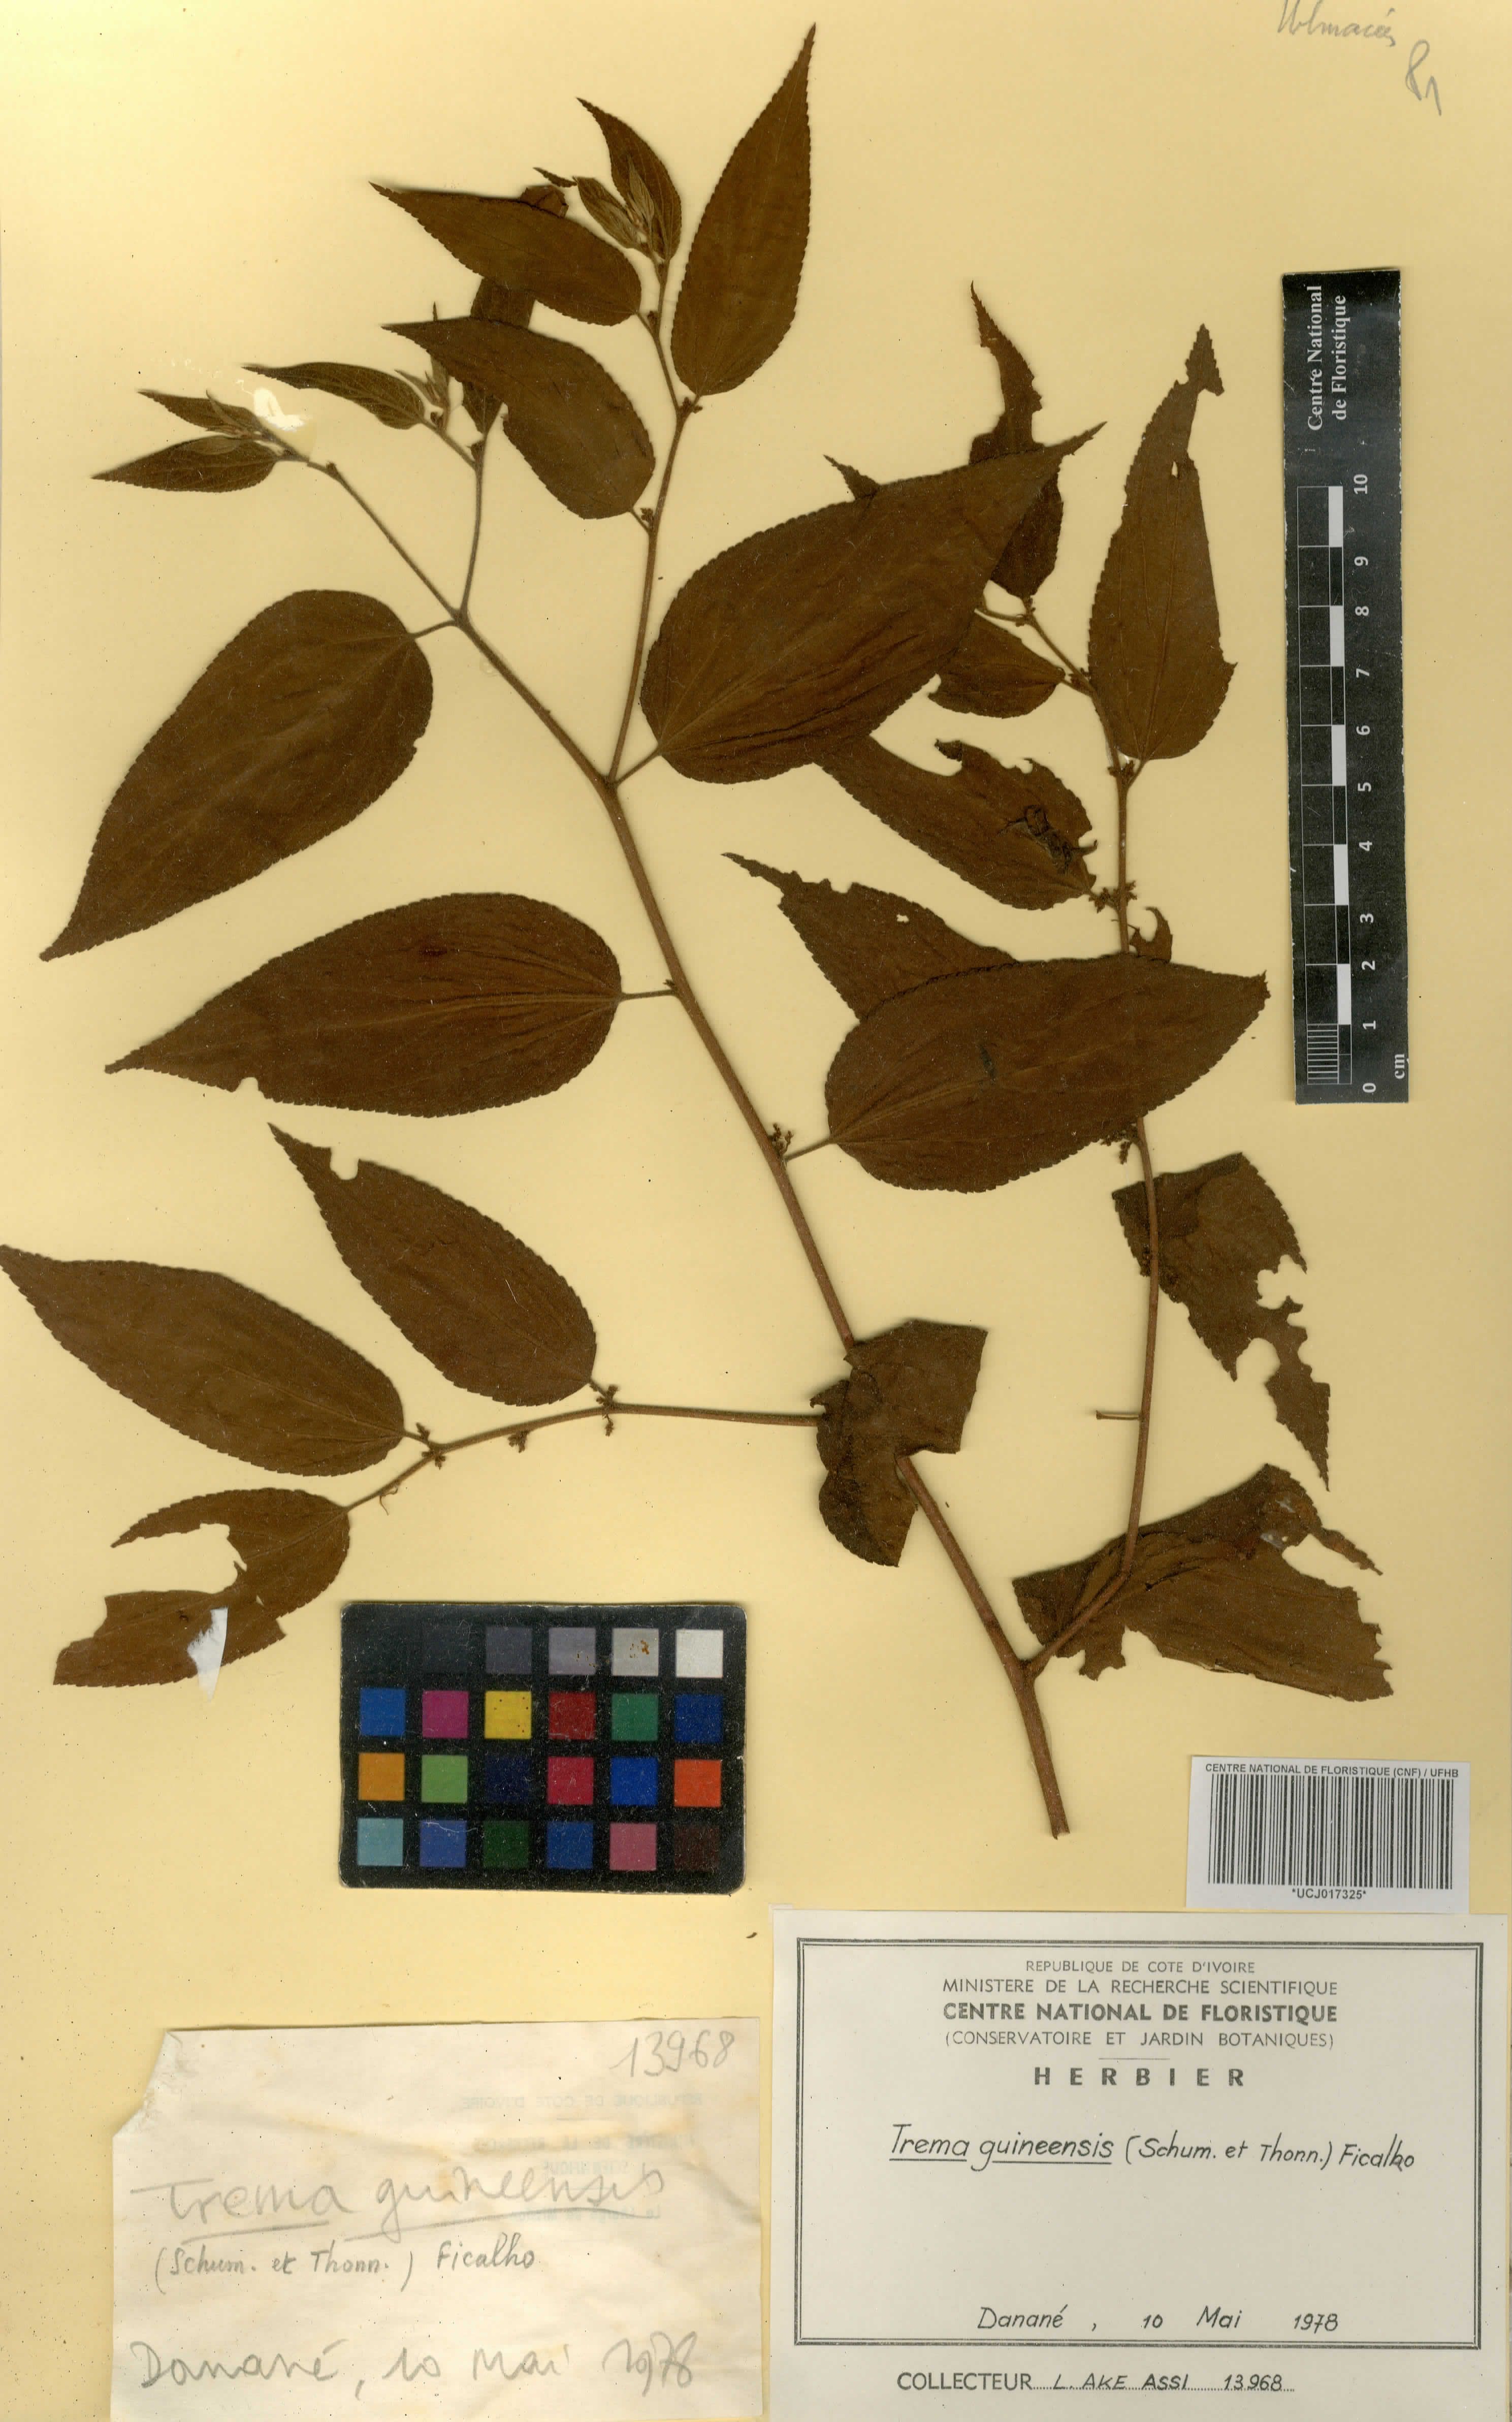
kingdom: Plantae
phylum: Tracheophyta
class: Magnoliopsida
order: Rosales
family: Cannabaceae
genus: Trema
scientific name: Trema orientale
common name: Indian charcoal tree
